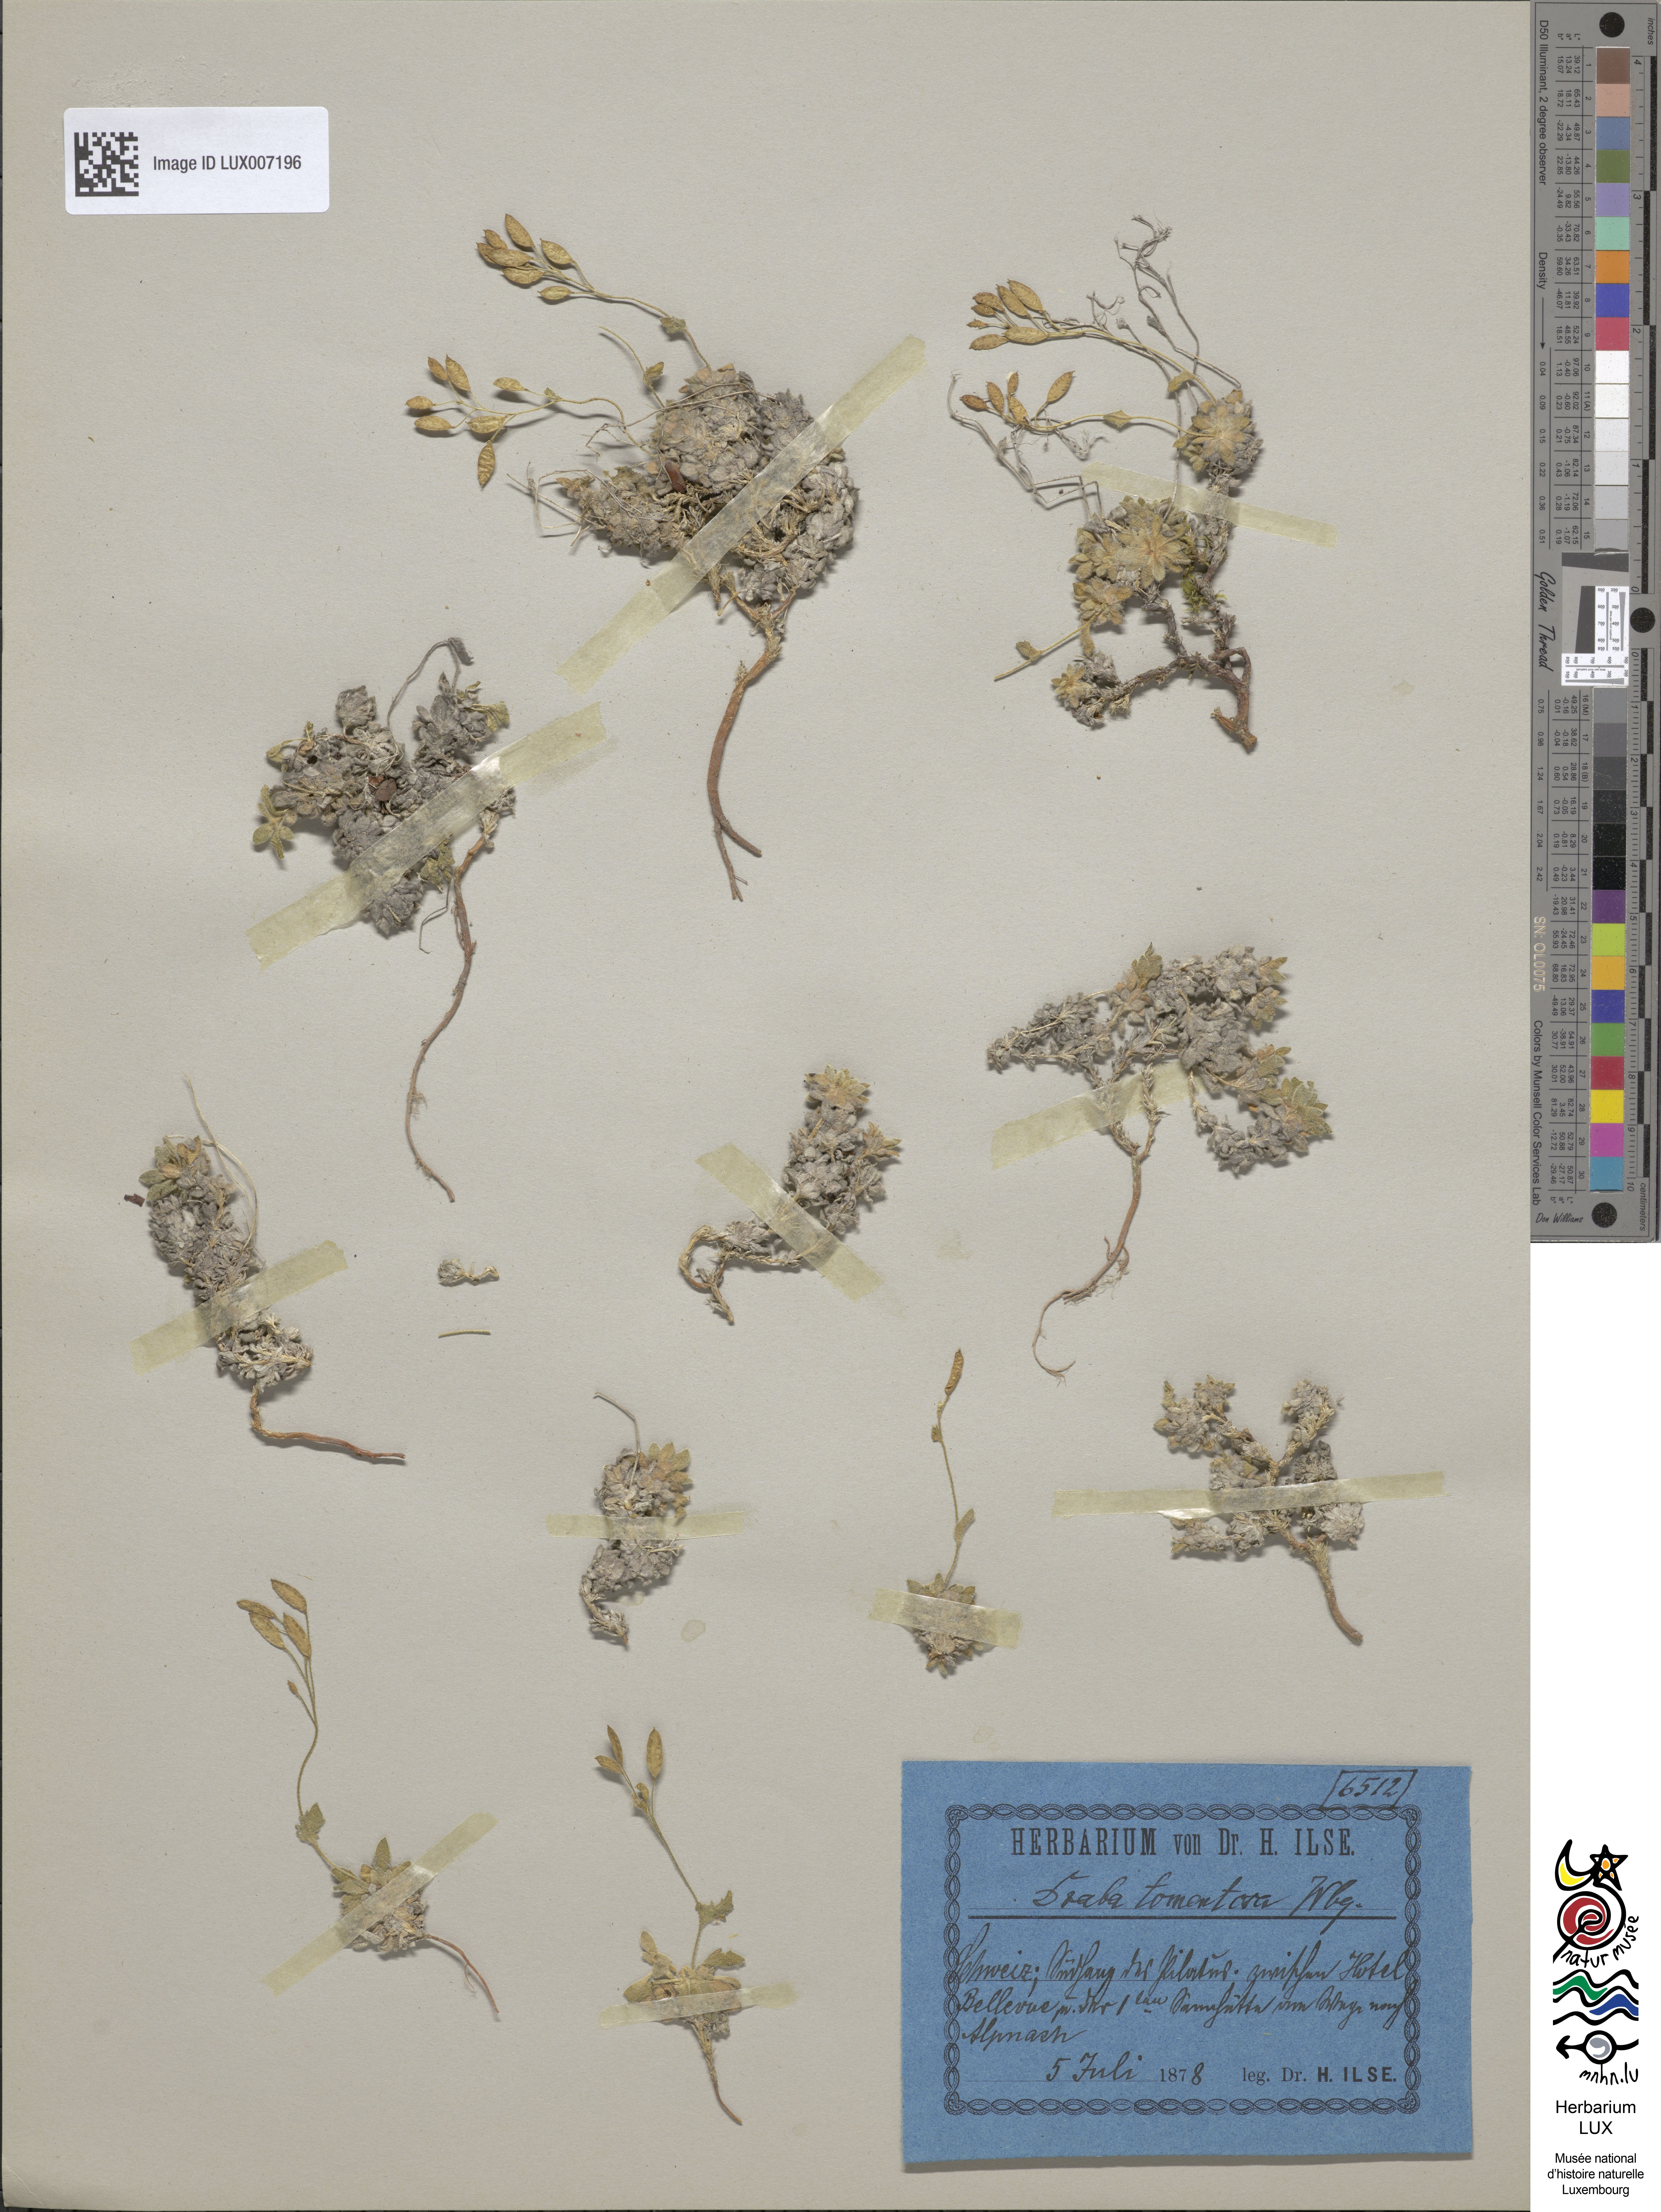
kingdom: Plantae
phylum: Tracheophyta
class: Magnoliopsida
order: Brassicales
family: Brassicaceae
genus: Draba
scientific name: Draba tomentosa
